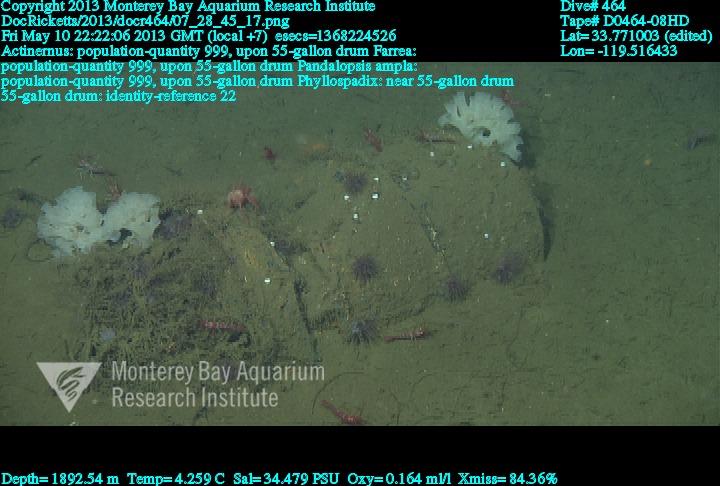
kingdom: Animalia
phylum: Porifera
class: Hexactinellida
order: Sceptrulophora
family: Farreidae
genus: Farrea
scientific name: Farrea
